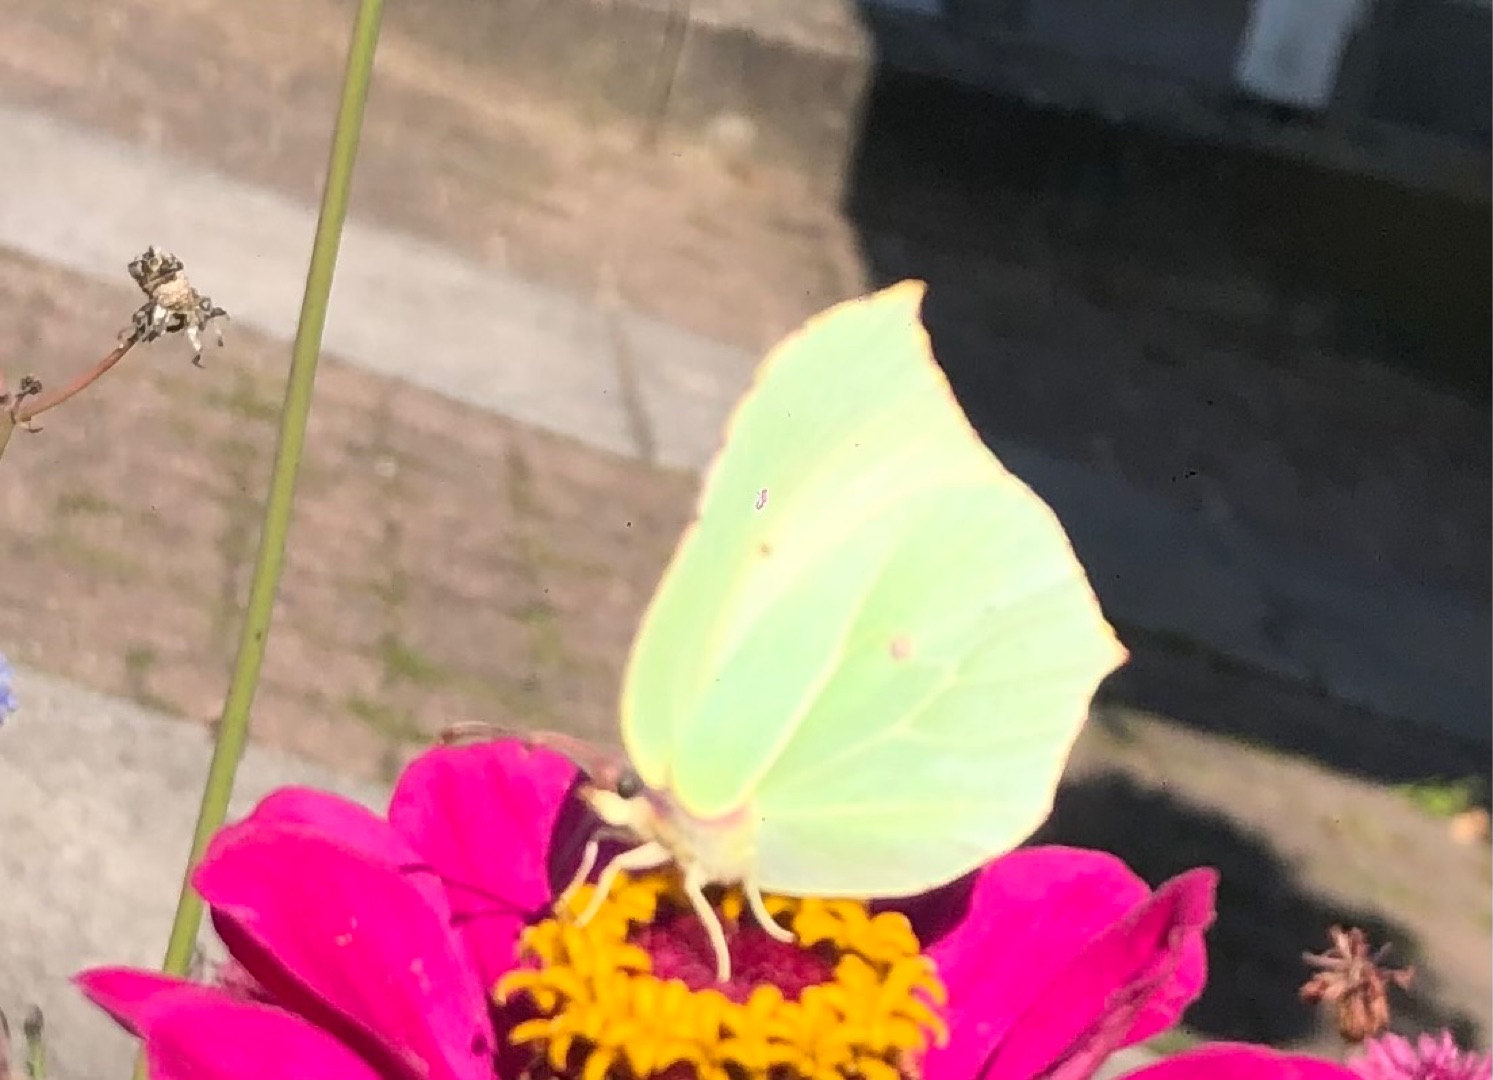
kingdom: Animalia
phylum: Arthropoda
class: Insecta
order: Lepidoptera
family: Pieridae
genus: Gonepteryx
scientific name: Gonepteryx rhamni
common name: Citronsommerfugl
